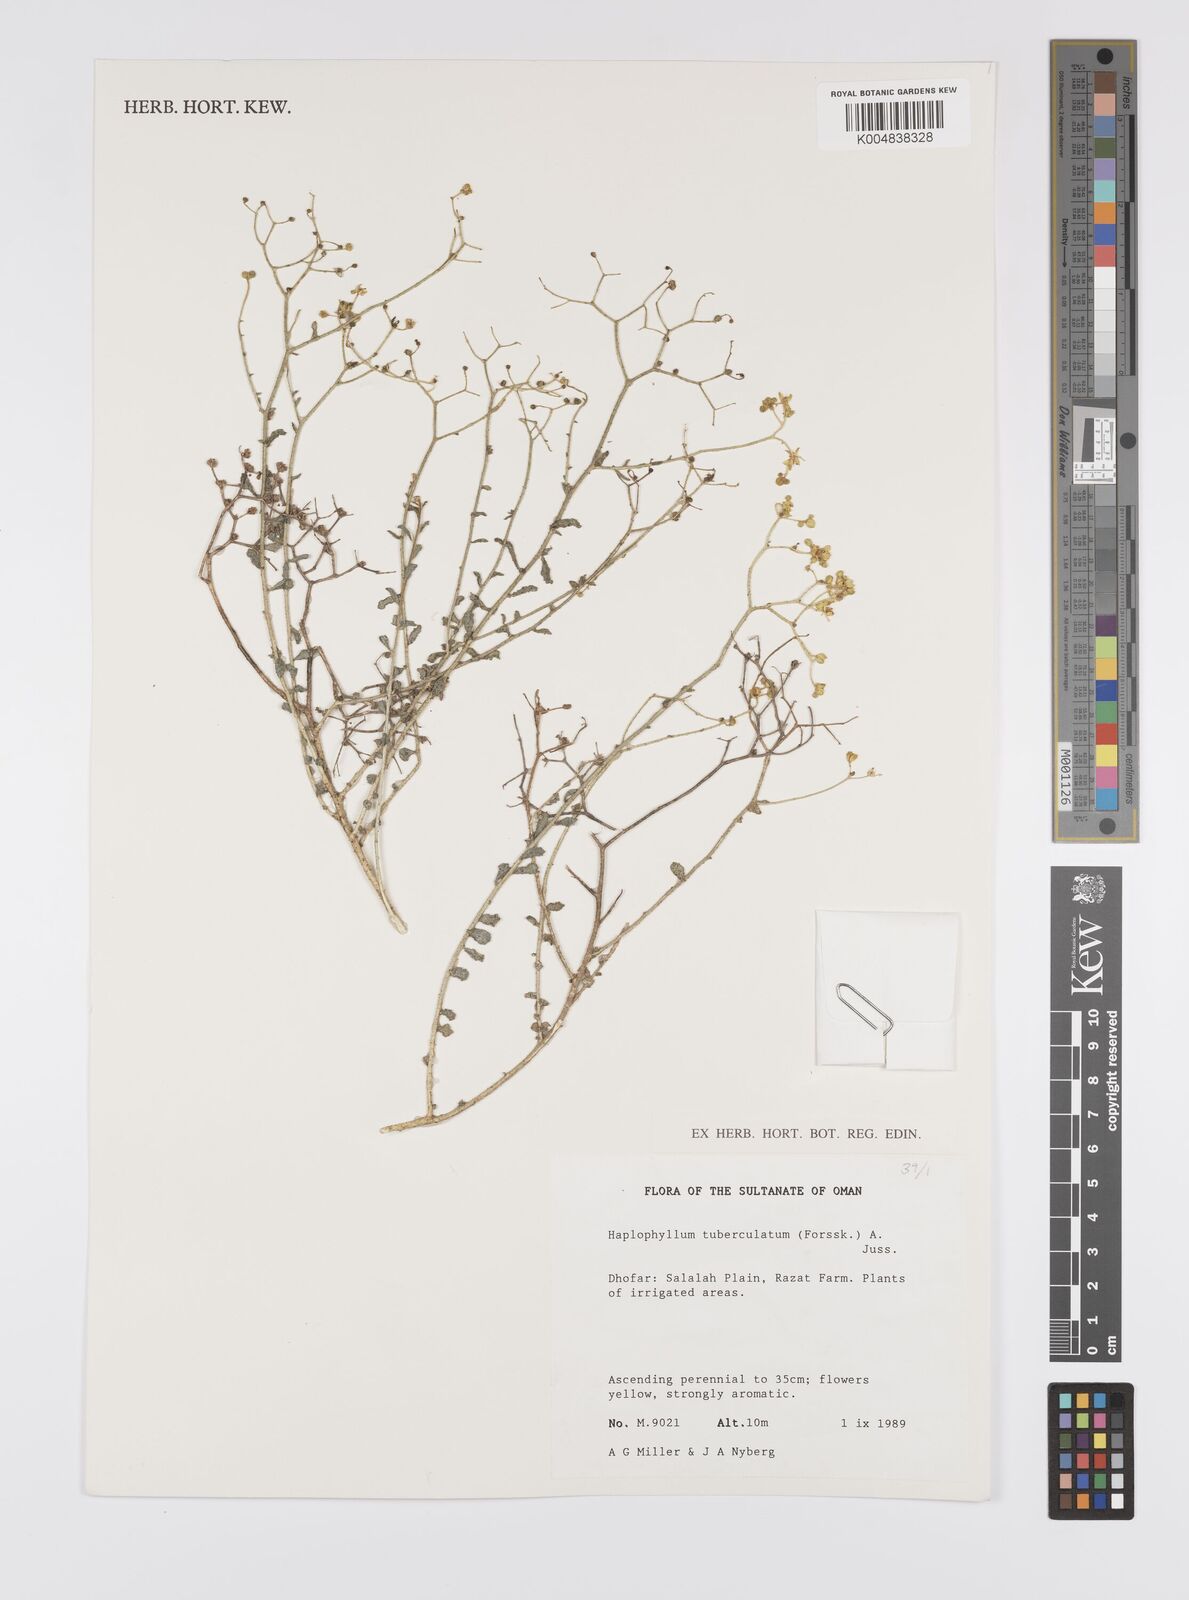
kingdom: Plantae
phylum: Tracheophyta
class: Magnoliopsida
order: Sapindales
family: Rutaceae
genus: Haplophyllum
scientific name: Haplophyllum tuberculatum
